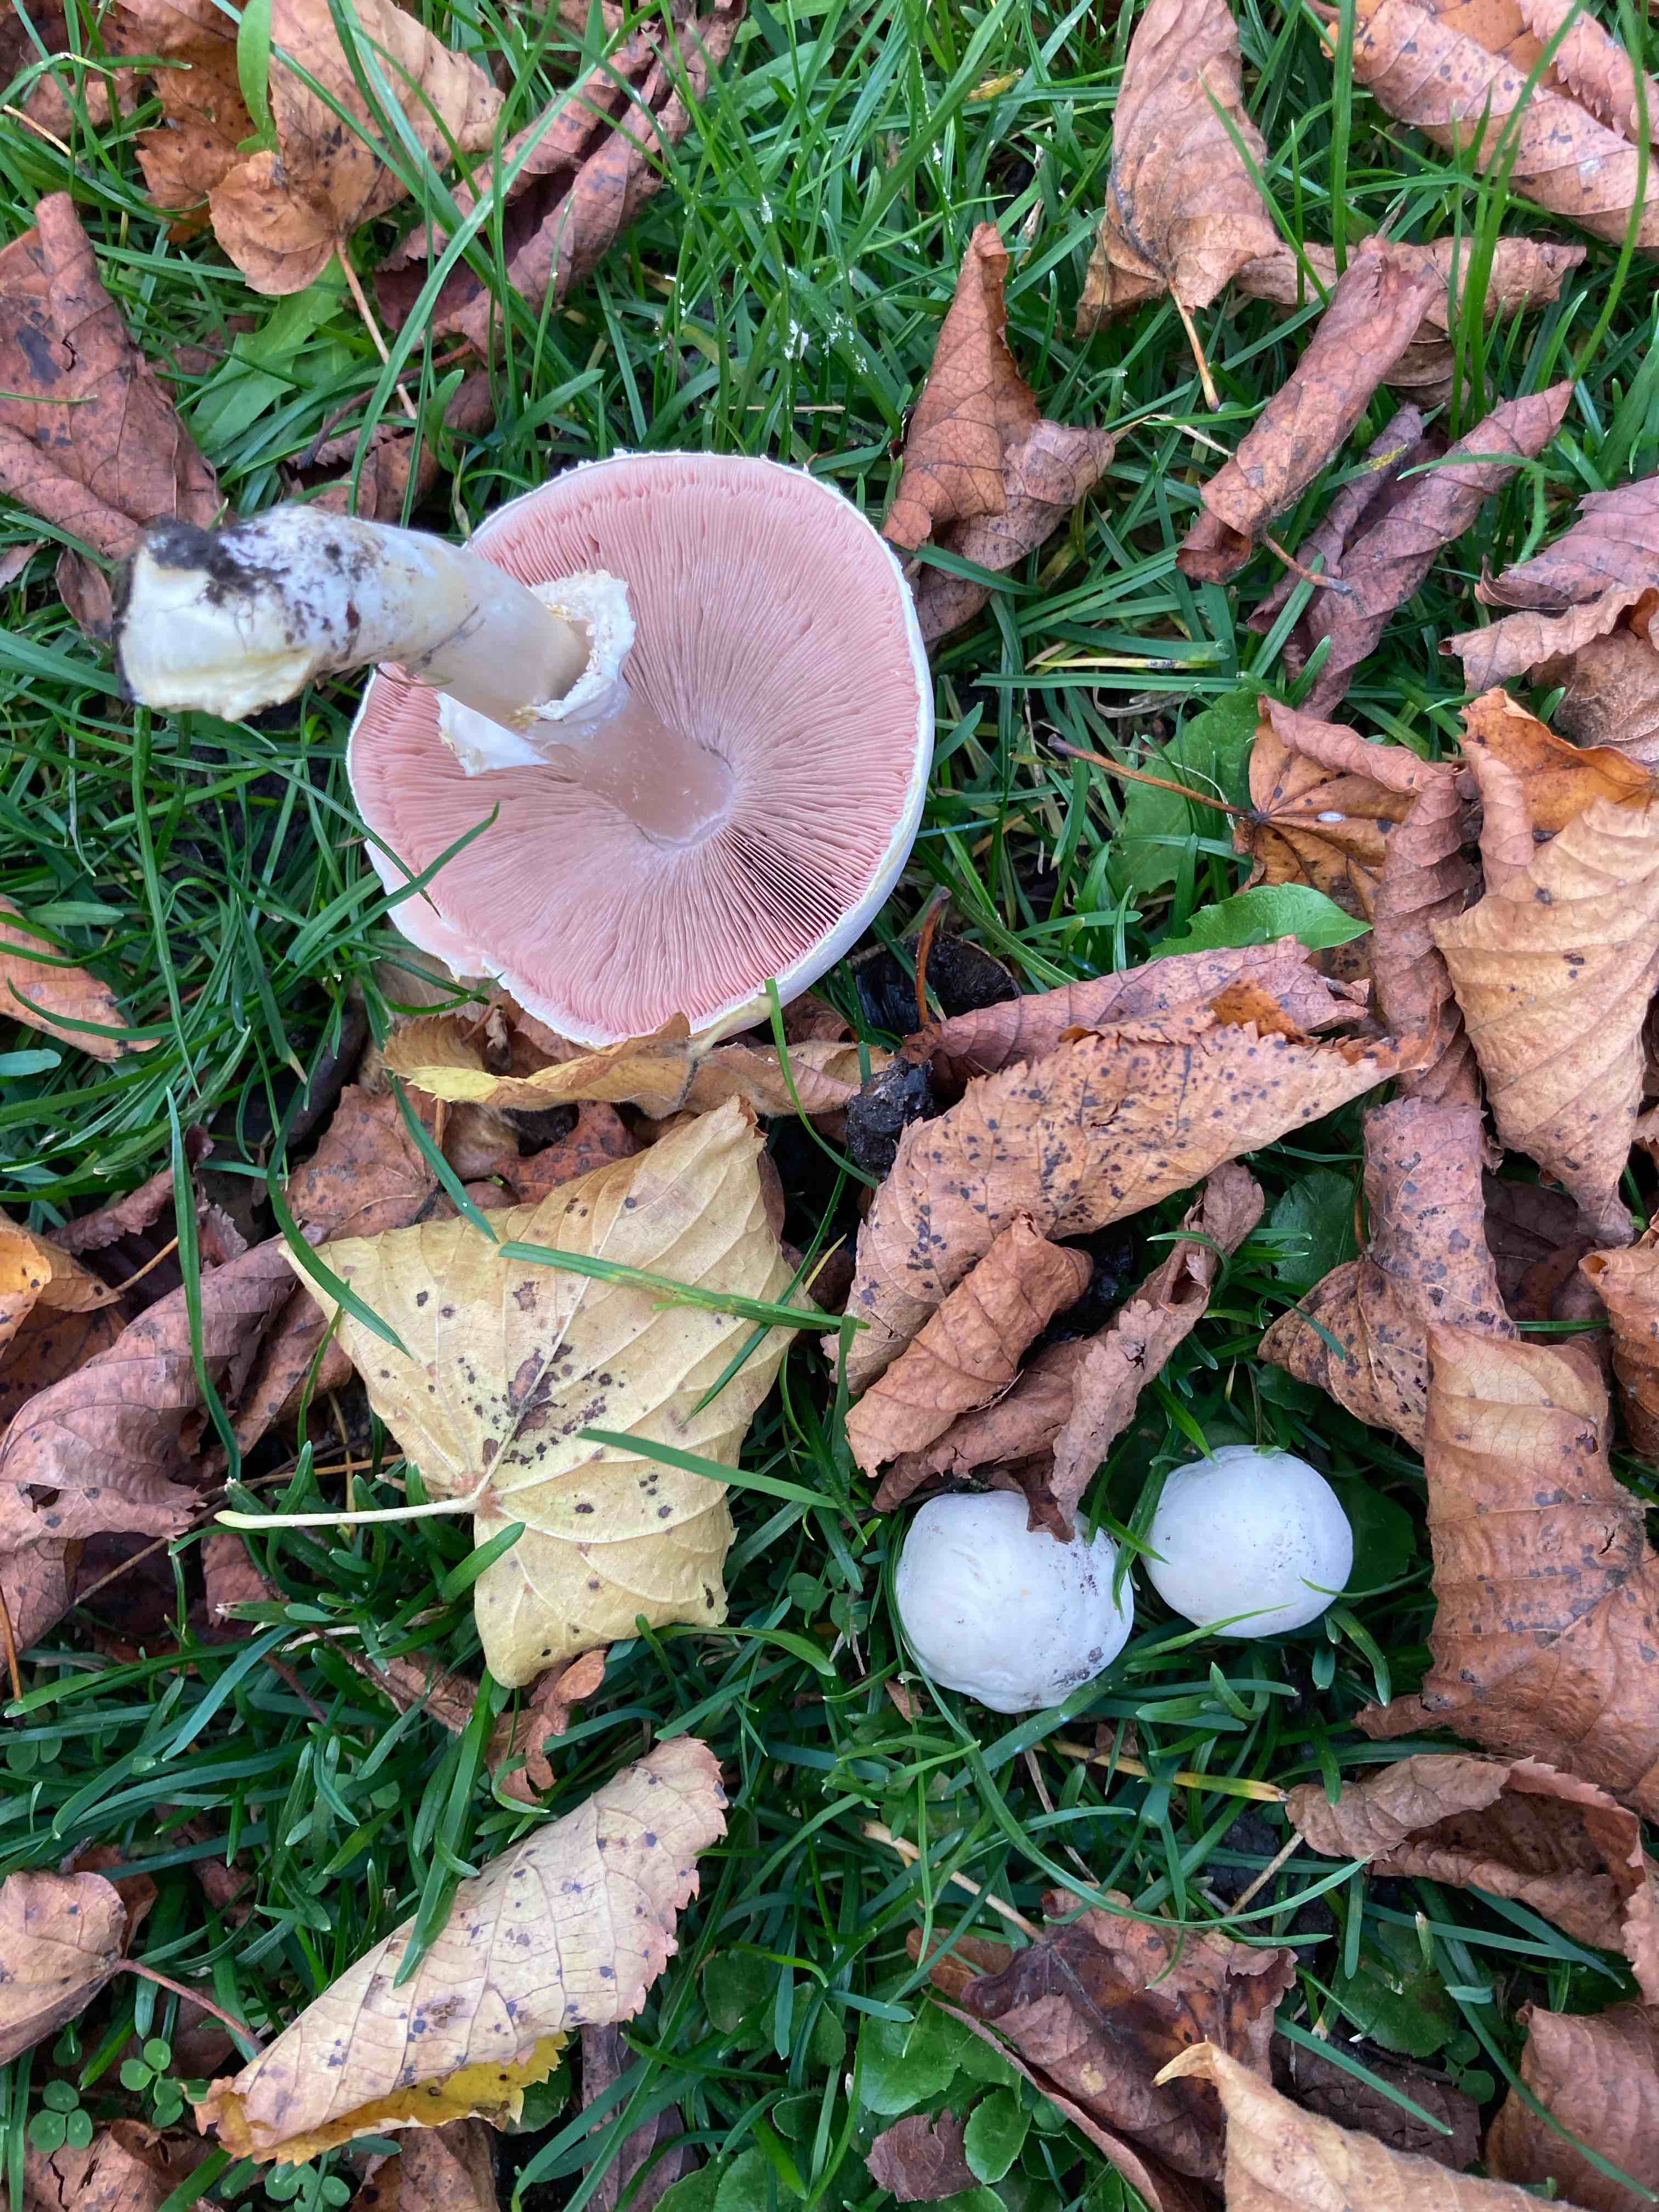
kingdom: Fungi
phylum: Basidiomycota
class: Agaricomycetes
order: Agaricales
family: Agaricaceae
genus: Agaricus
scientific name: Agaricus xanthodermus
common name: karbol-champignon
